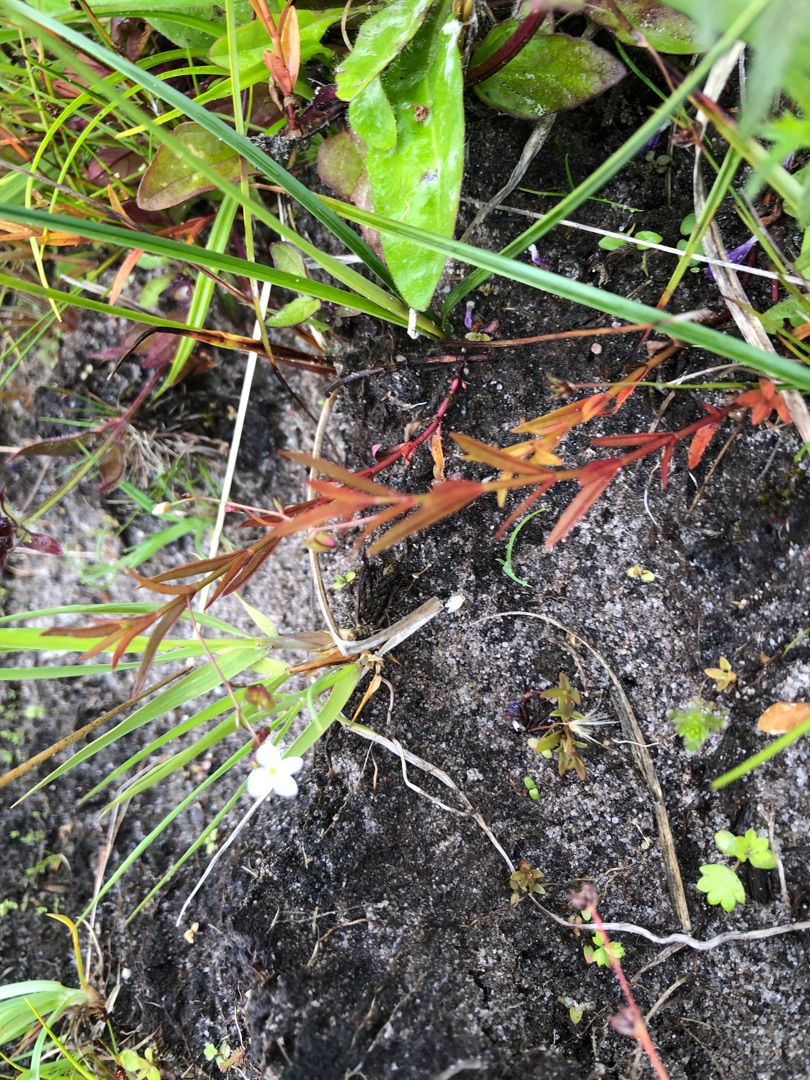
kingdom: Plantae
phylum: Tracheophyta
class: Magnoliopsida
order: Lamiales
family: Plantaginaceae
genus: Veronica
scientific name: Veronica scutellata
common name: Smalbladet ærenpris
